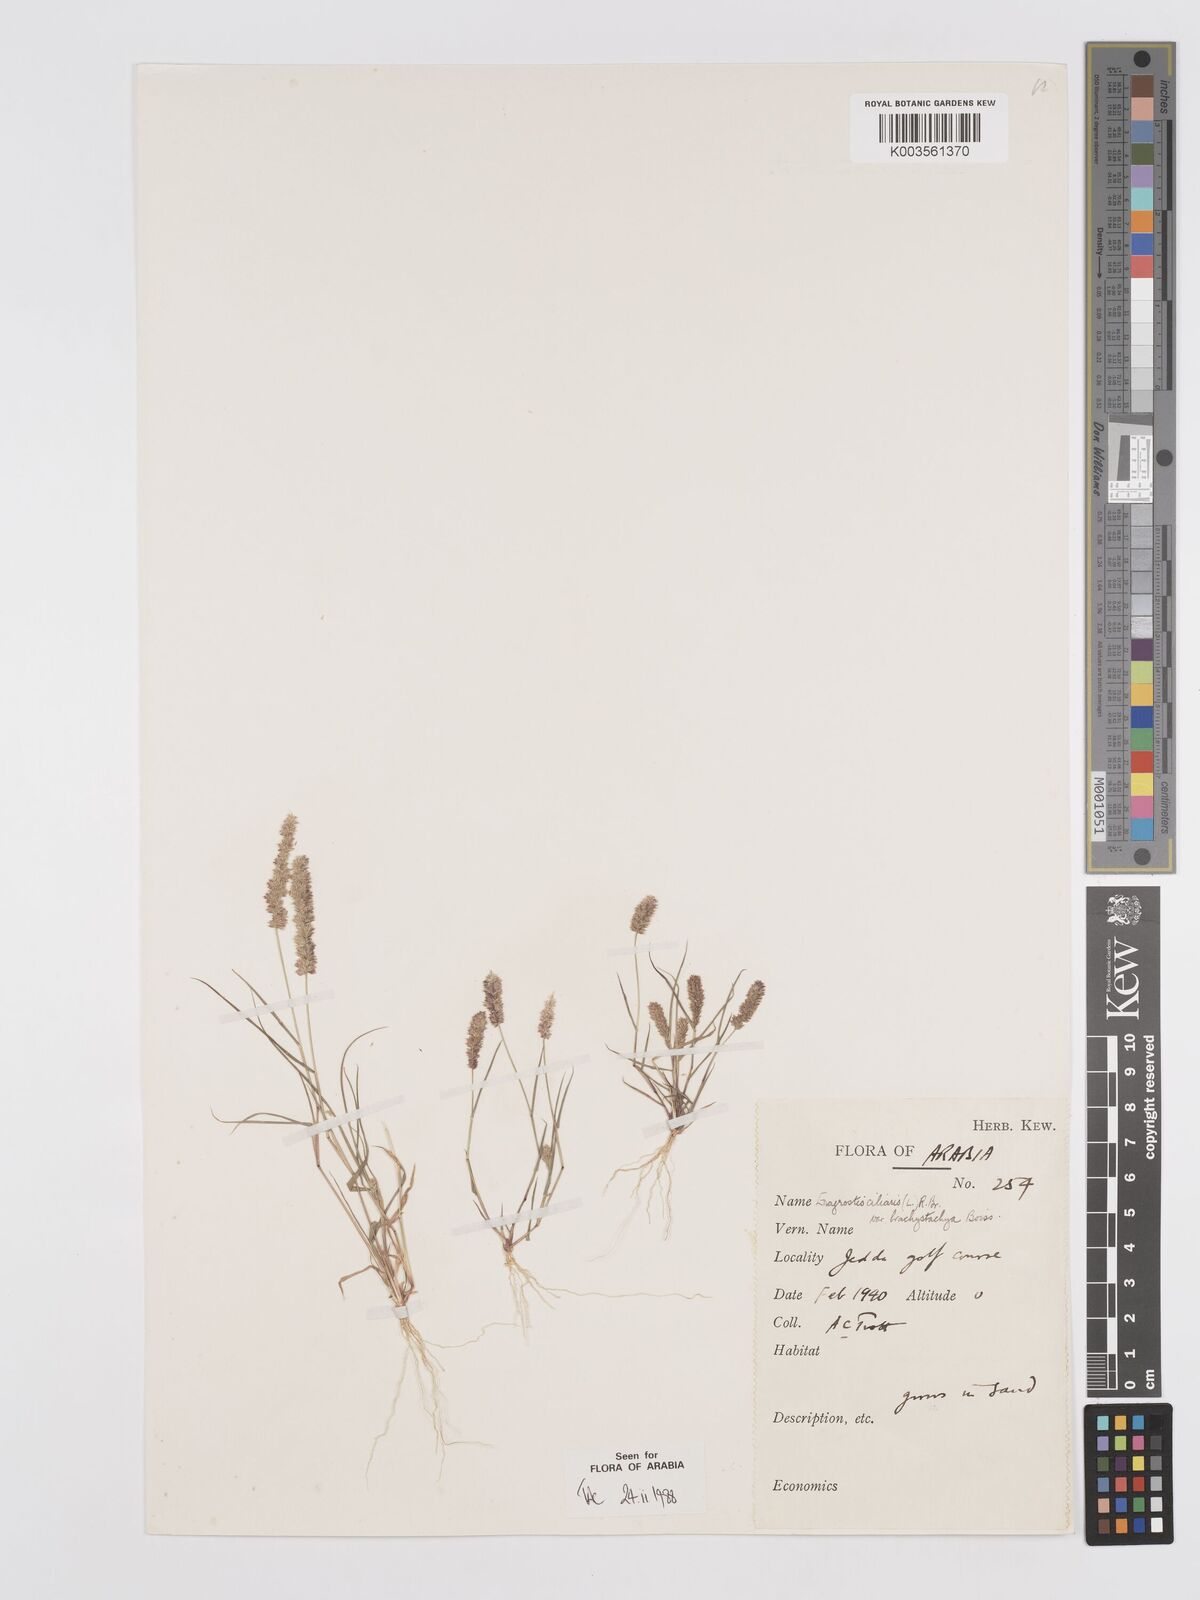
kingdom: Plantae
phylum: Tracheophyta
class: Liliopsida
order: Poales
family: Poaceae
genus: Eragrostis
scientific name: Eragrostis ciliaris
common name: Gophertail lovegrass
